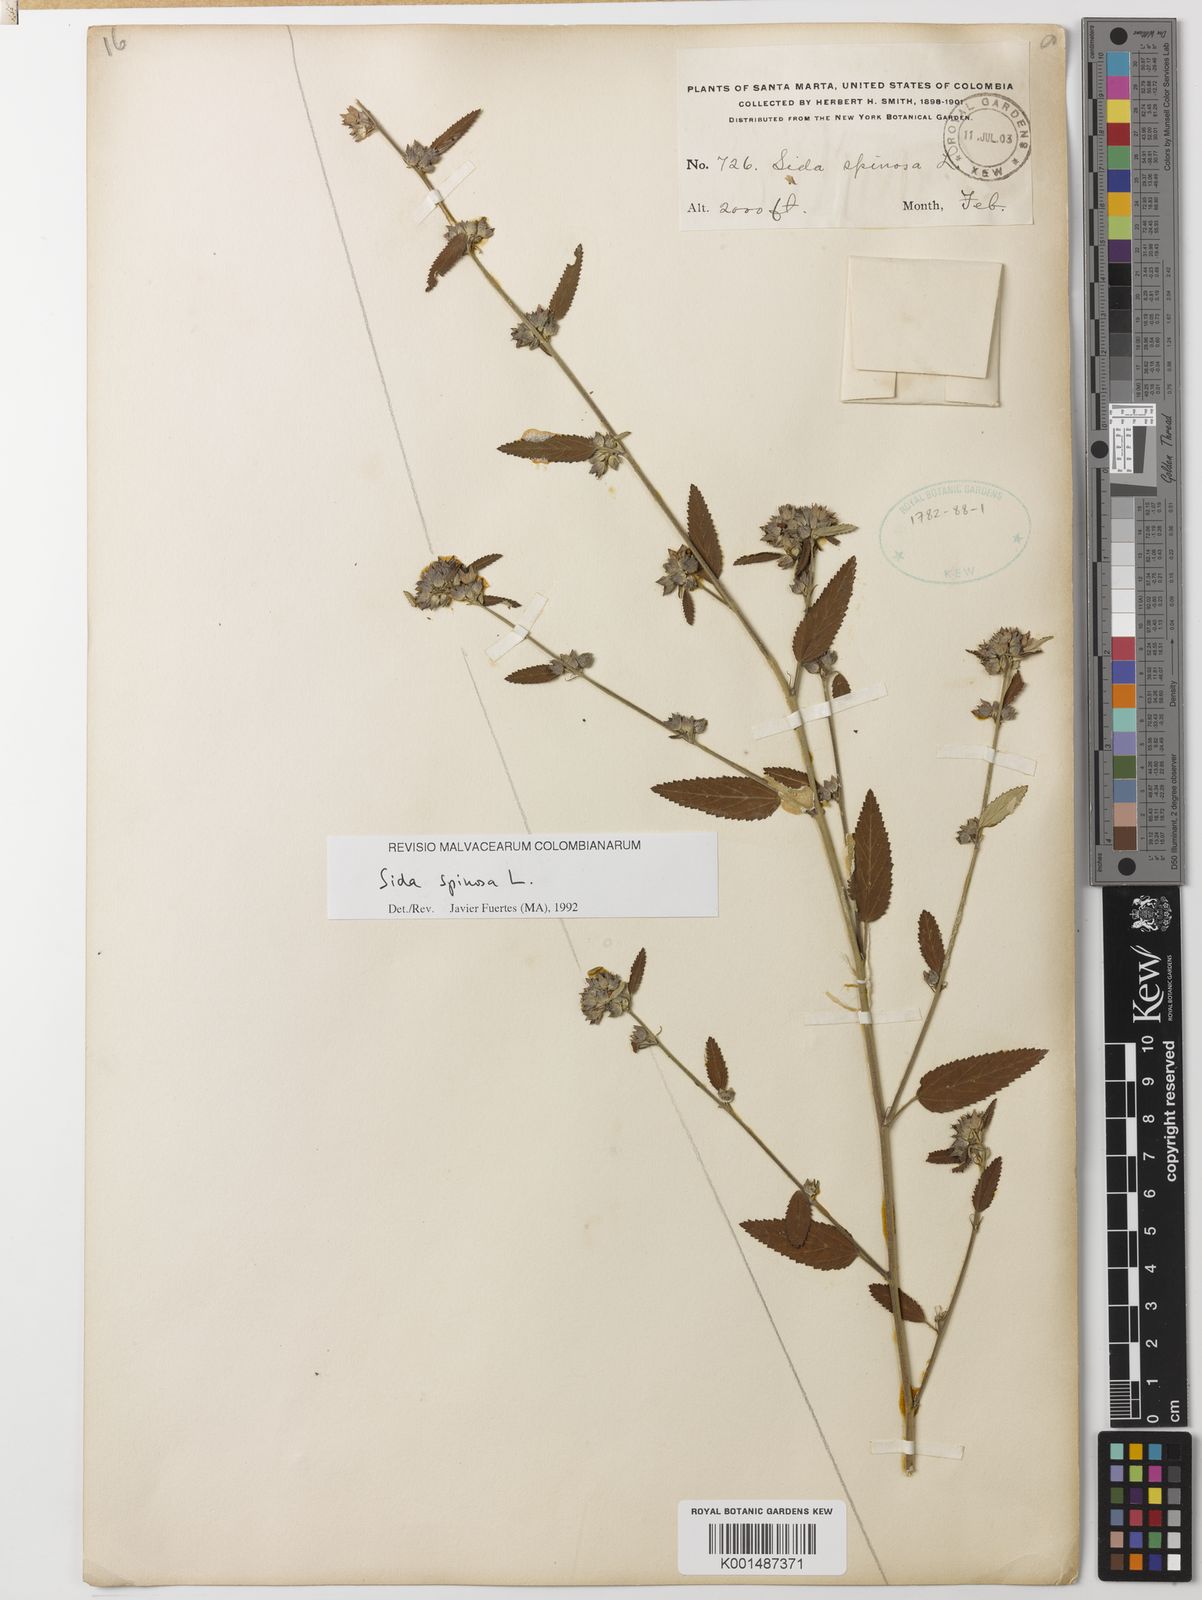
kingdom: Plantae
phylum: Tracheophyta
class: Magnoliopsida
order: Malvales
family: Malvaceae
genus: Sida
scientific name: Sida spinosa
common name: Prickly fanpetals
